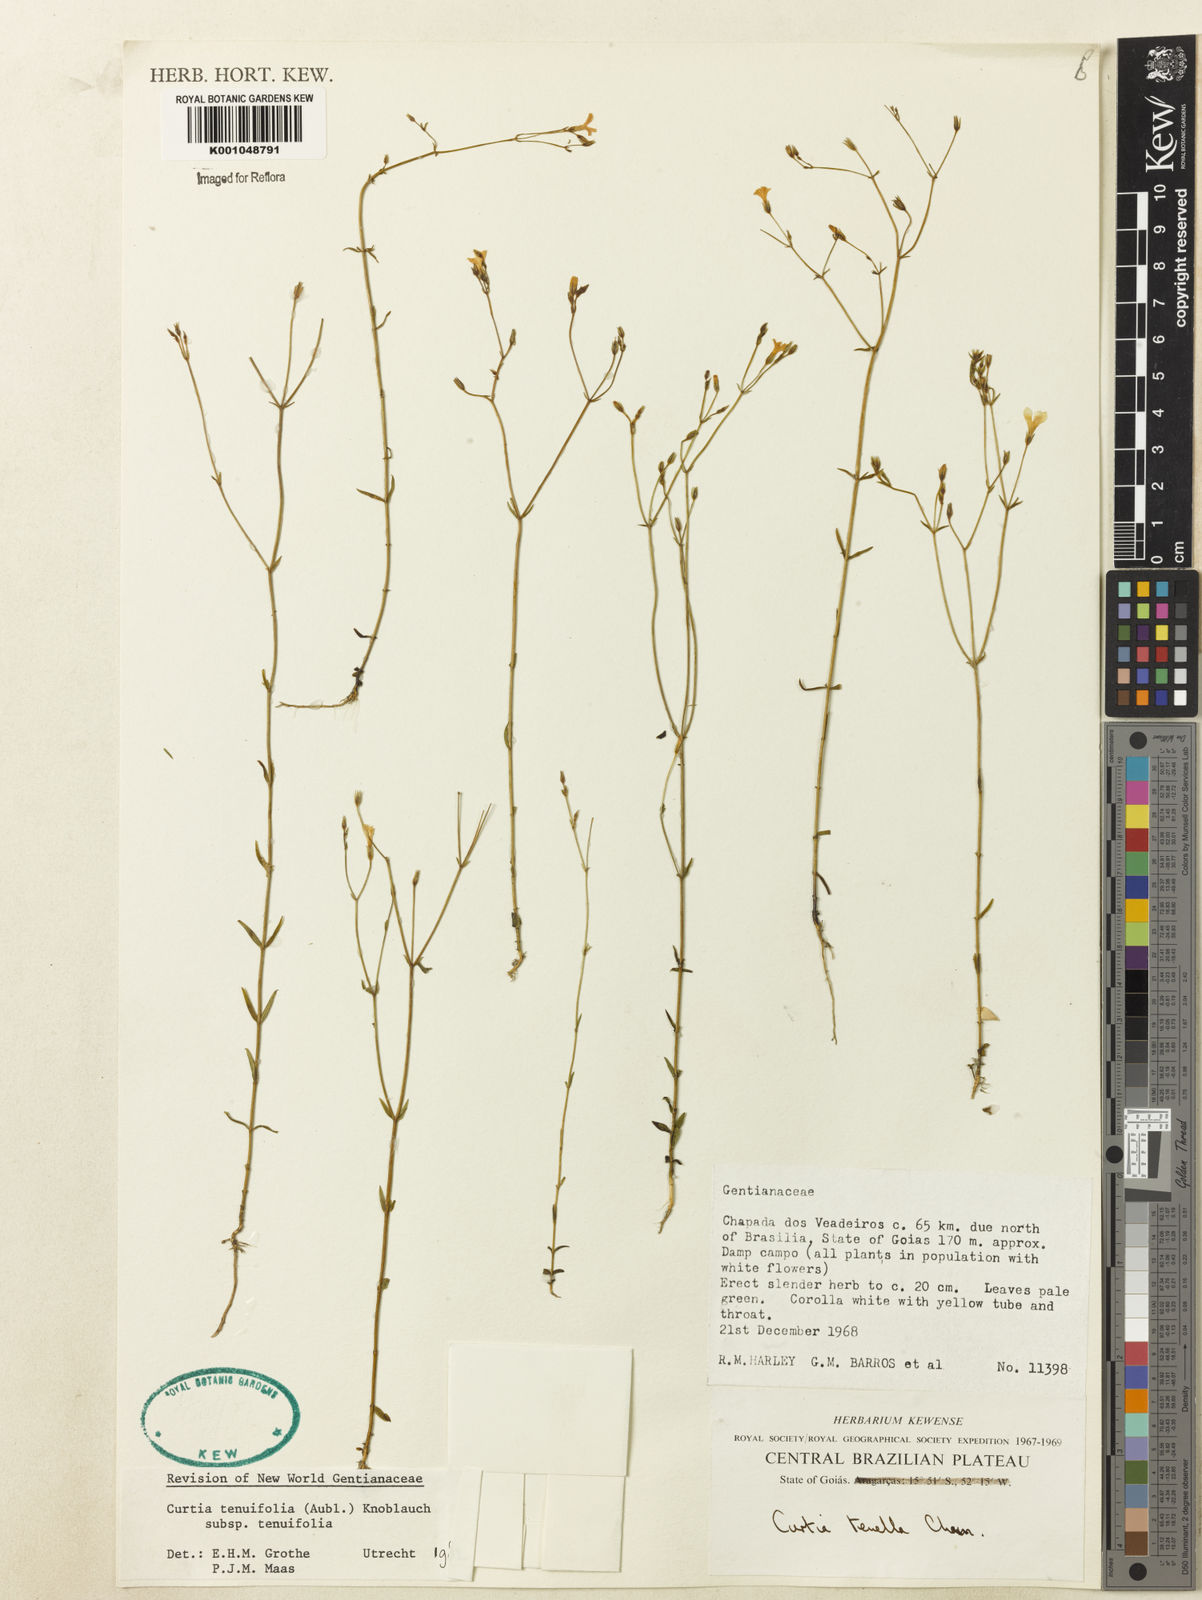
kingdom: Plantae
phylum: Tracheophyta
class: Magnoliopsida
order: Gentianales
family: Gentianaceae
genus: Curtia
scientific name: Curtia tenuifolia
